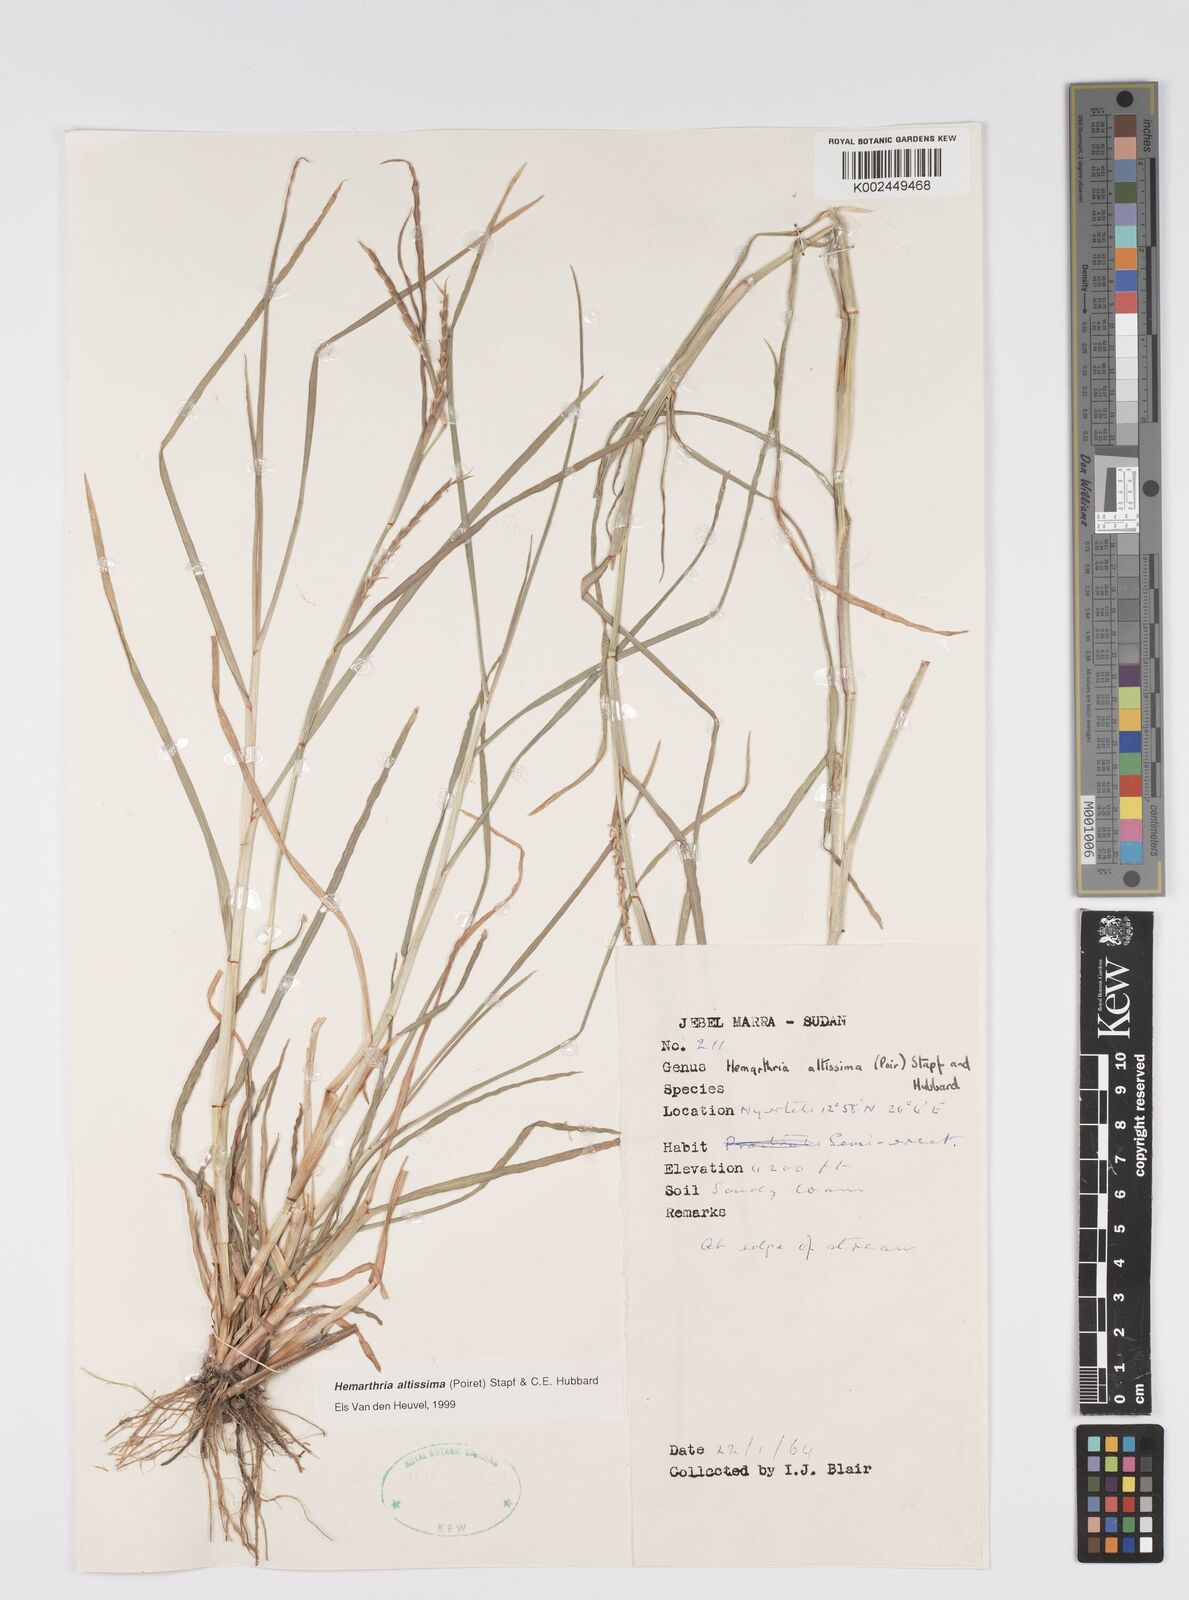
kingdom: Plantae
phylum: Tracheophyta
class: Liliopsida
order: Poales
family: Poaceae
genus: Hemarthria
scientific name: Hemarthria altissima
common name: African jointgrass
